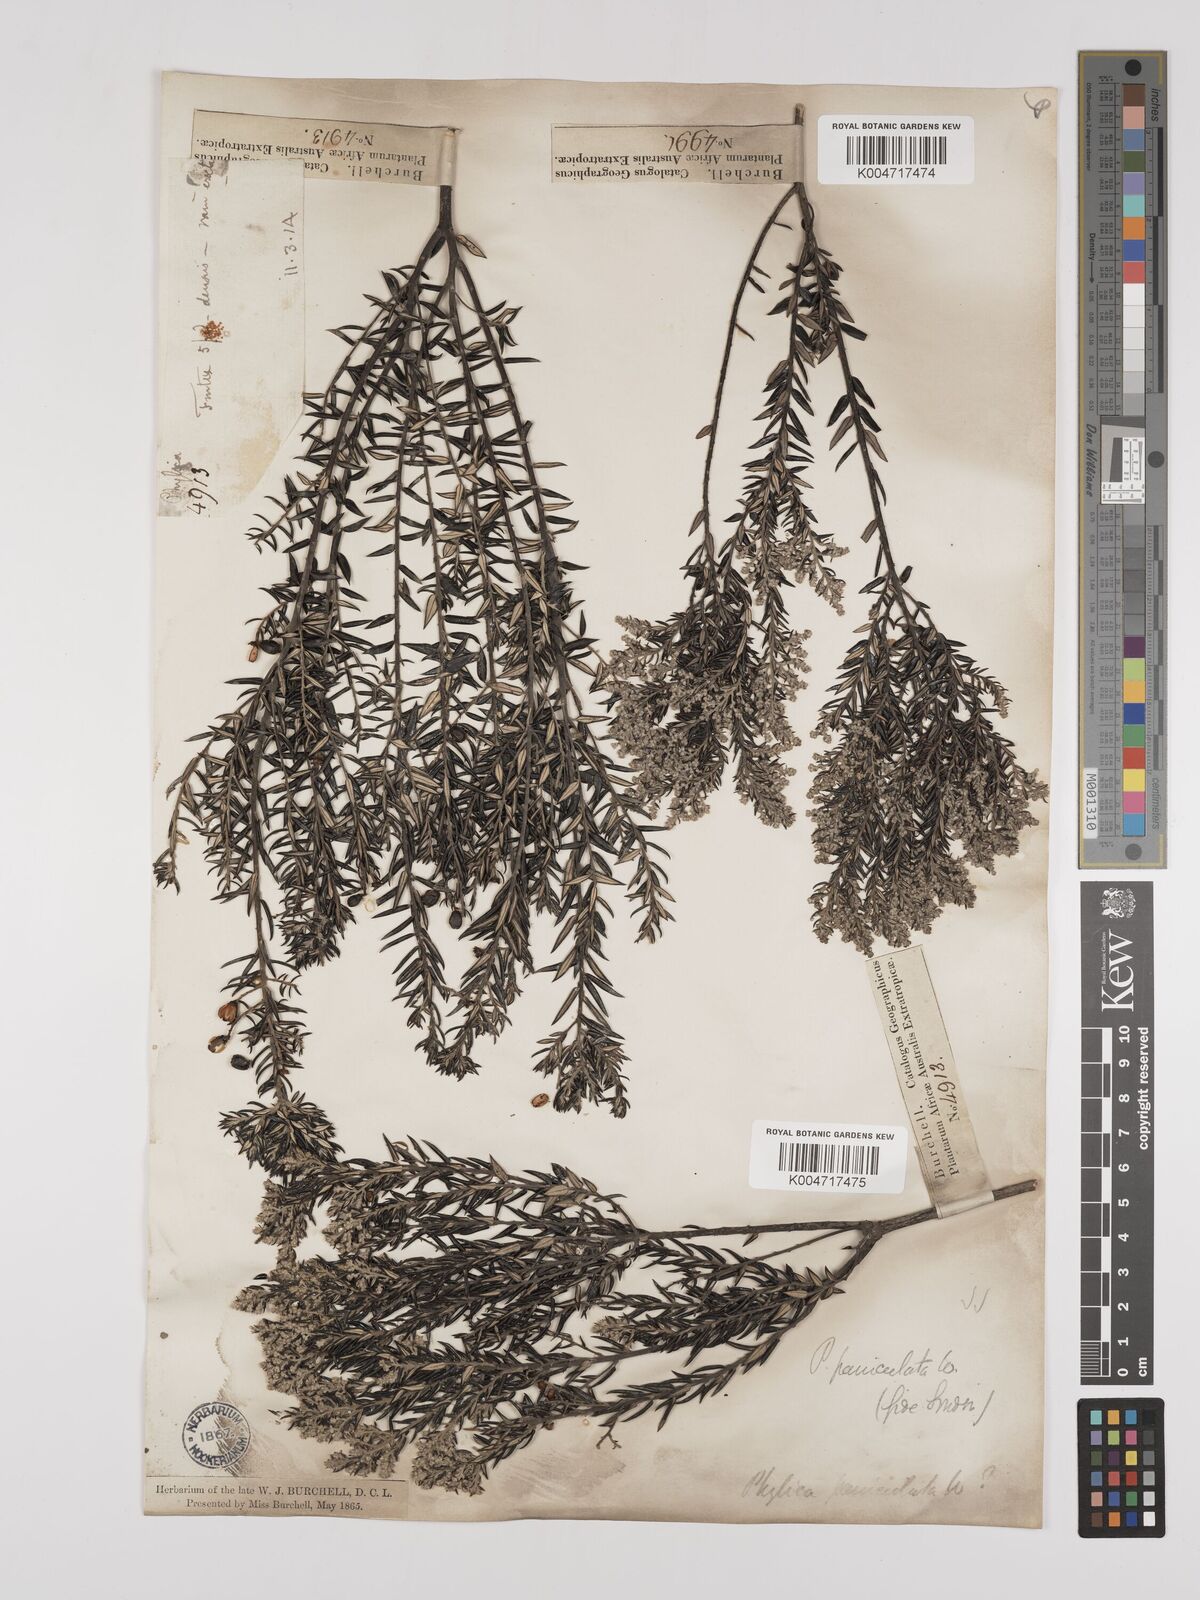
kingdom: Plantae
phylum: Tracheophyta
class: Magnoliopsida
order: Rosales
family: Rhamnaceae
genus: Phylica
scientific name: Phylica paniculata
